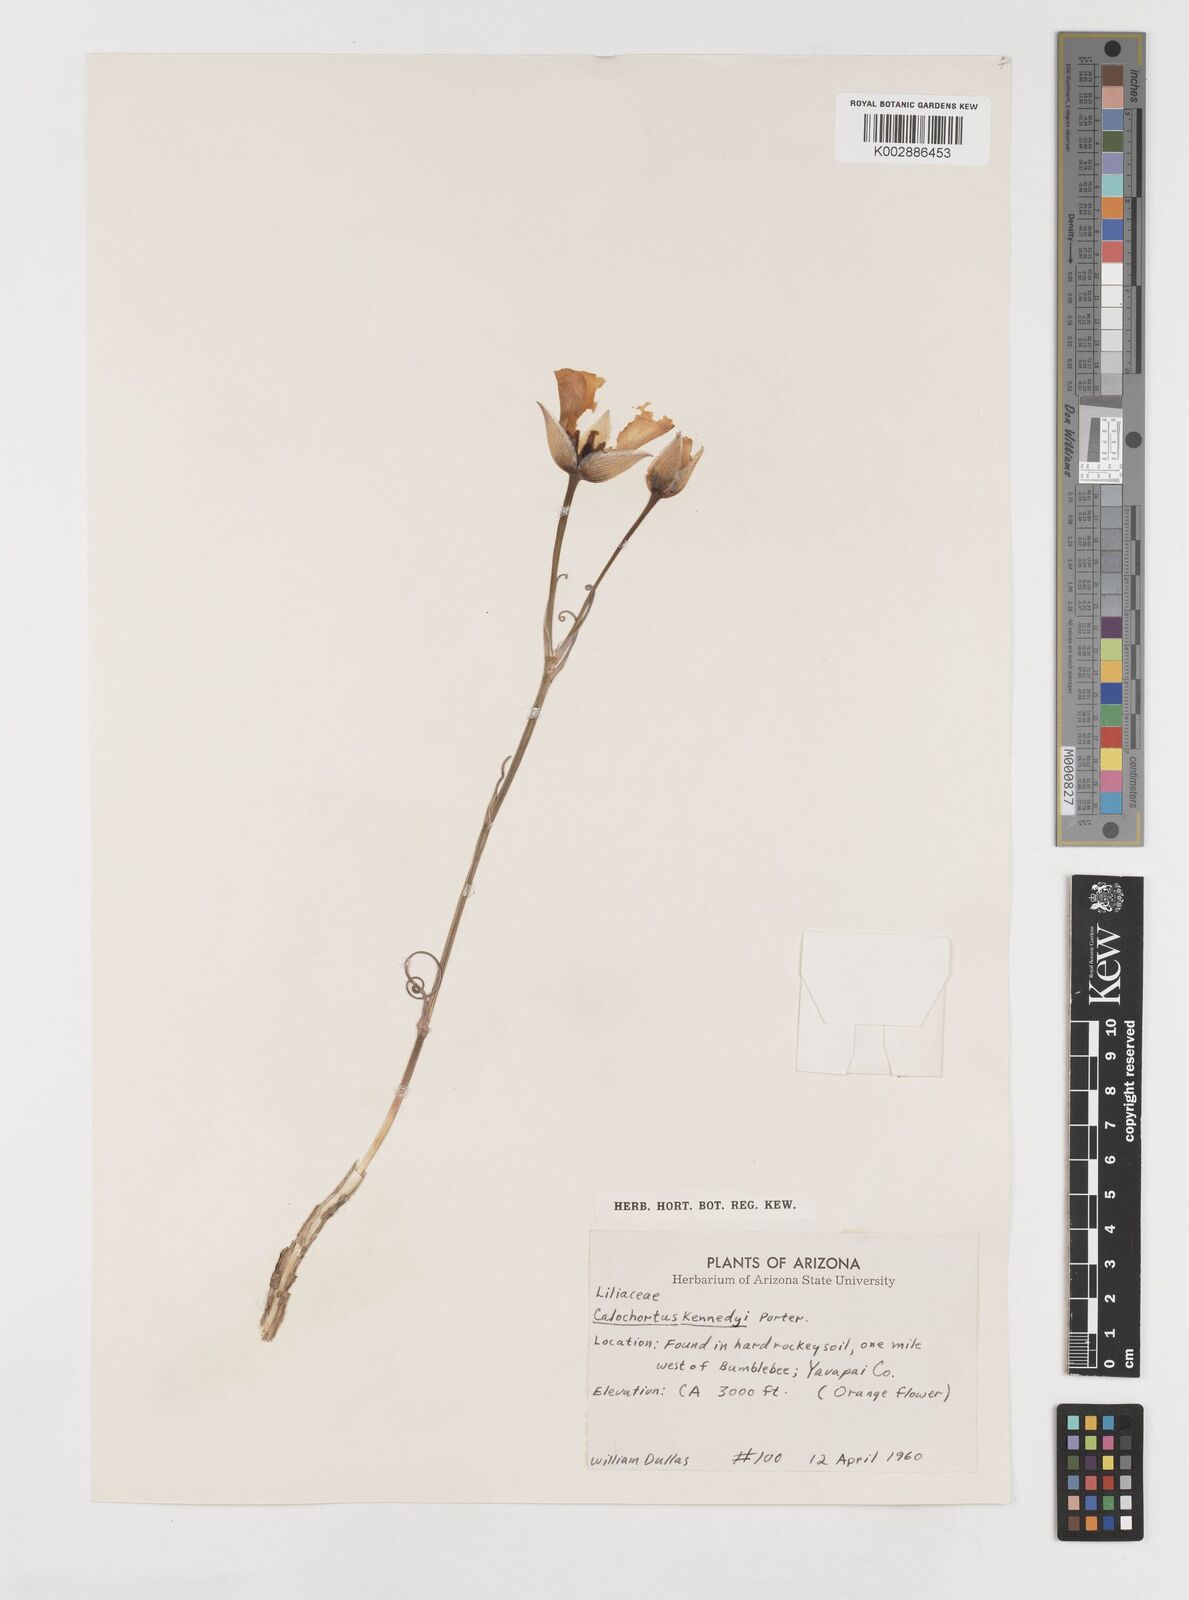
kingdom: Plantae
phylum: Tracheophyta
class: Liliopsida
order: Liliales
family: Liliaceae
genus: Calochortus
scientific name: Calochortus kennedyi
